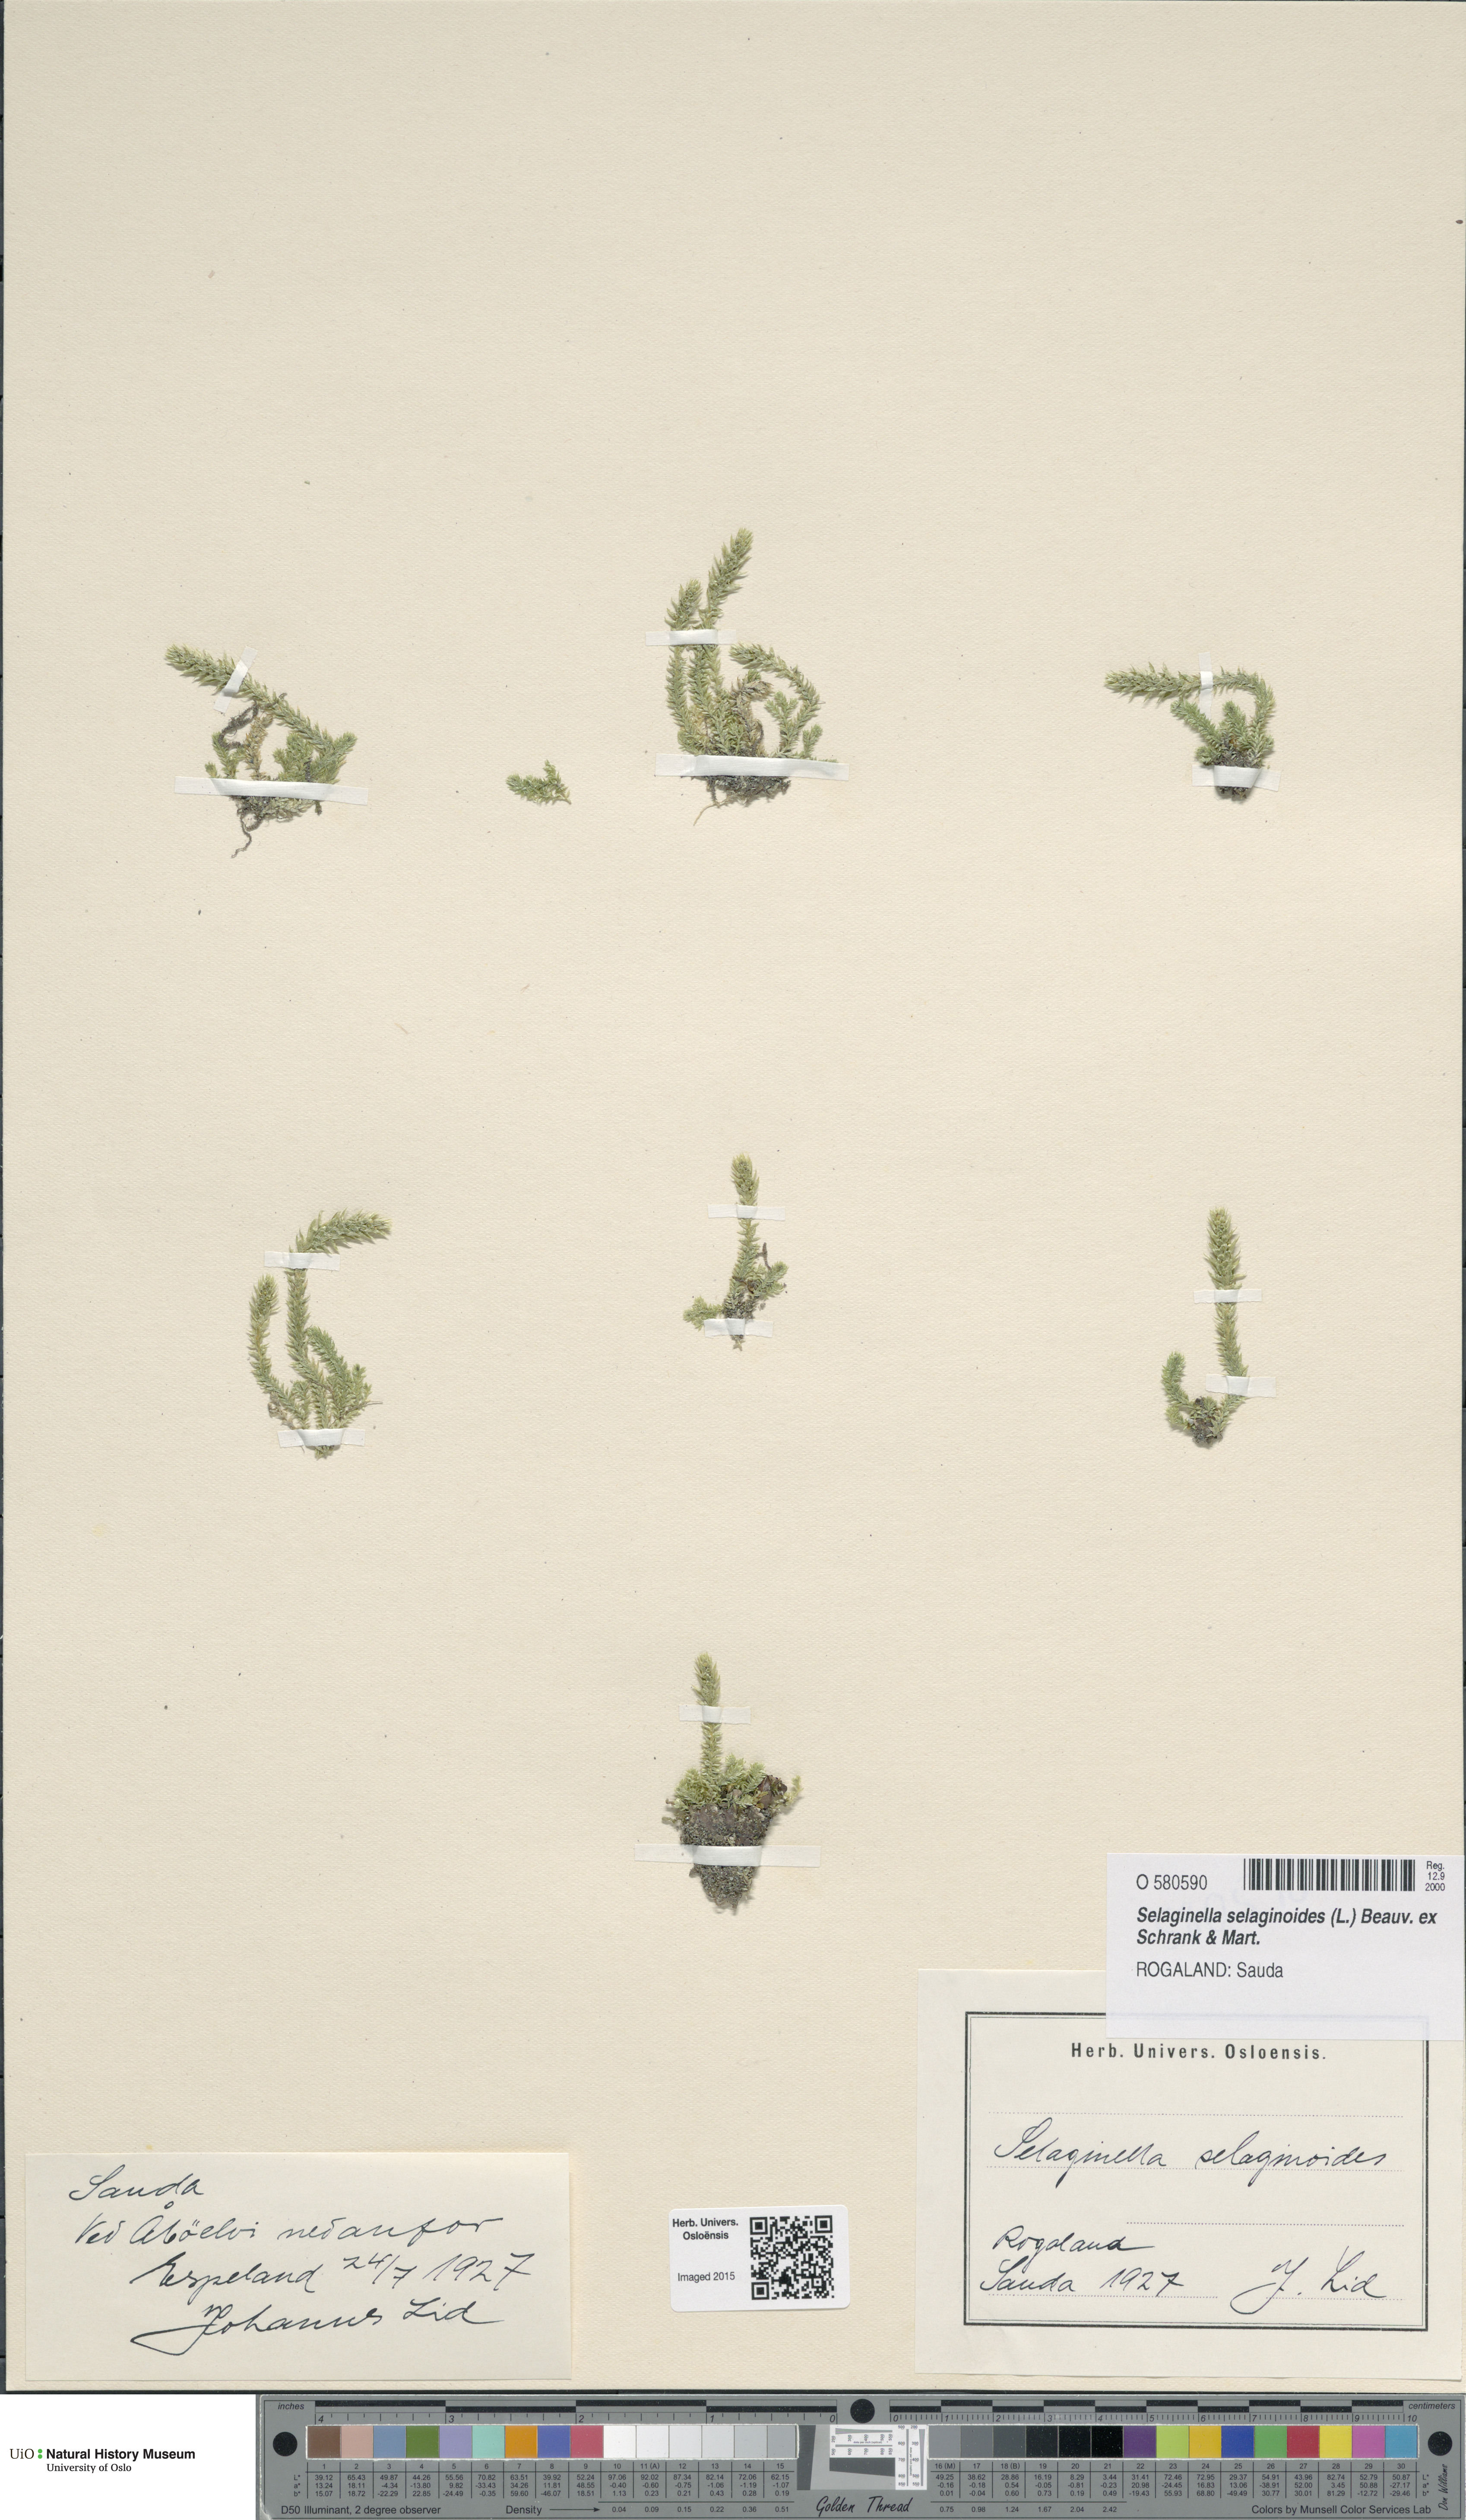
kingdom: Plantae
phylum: Tracheophyta
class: Lycopodiopsida
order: Selaginellales
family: Selaginellaceae
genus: Selaginella
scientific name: Selaginella selaginoides
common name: Prickly mountain-moss
